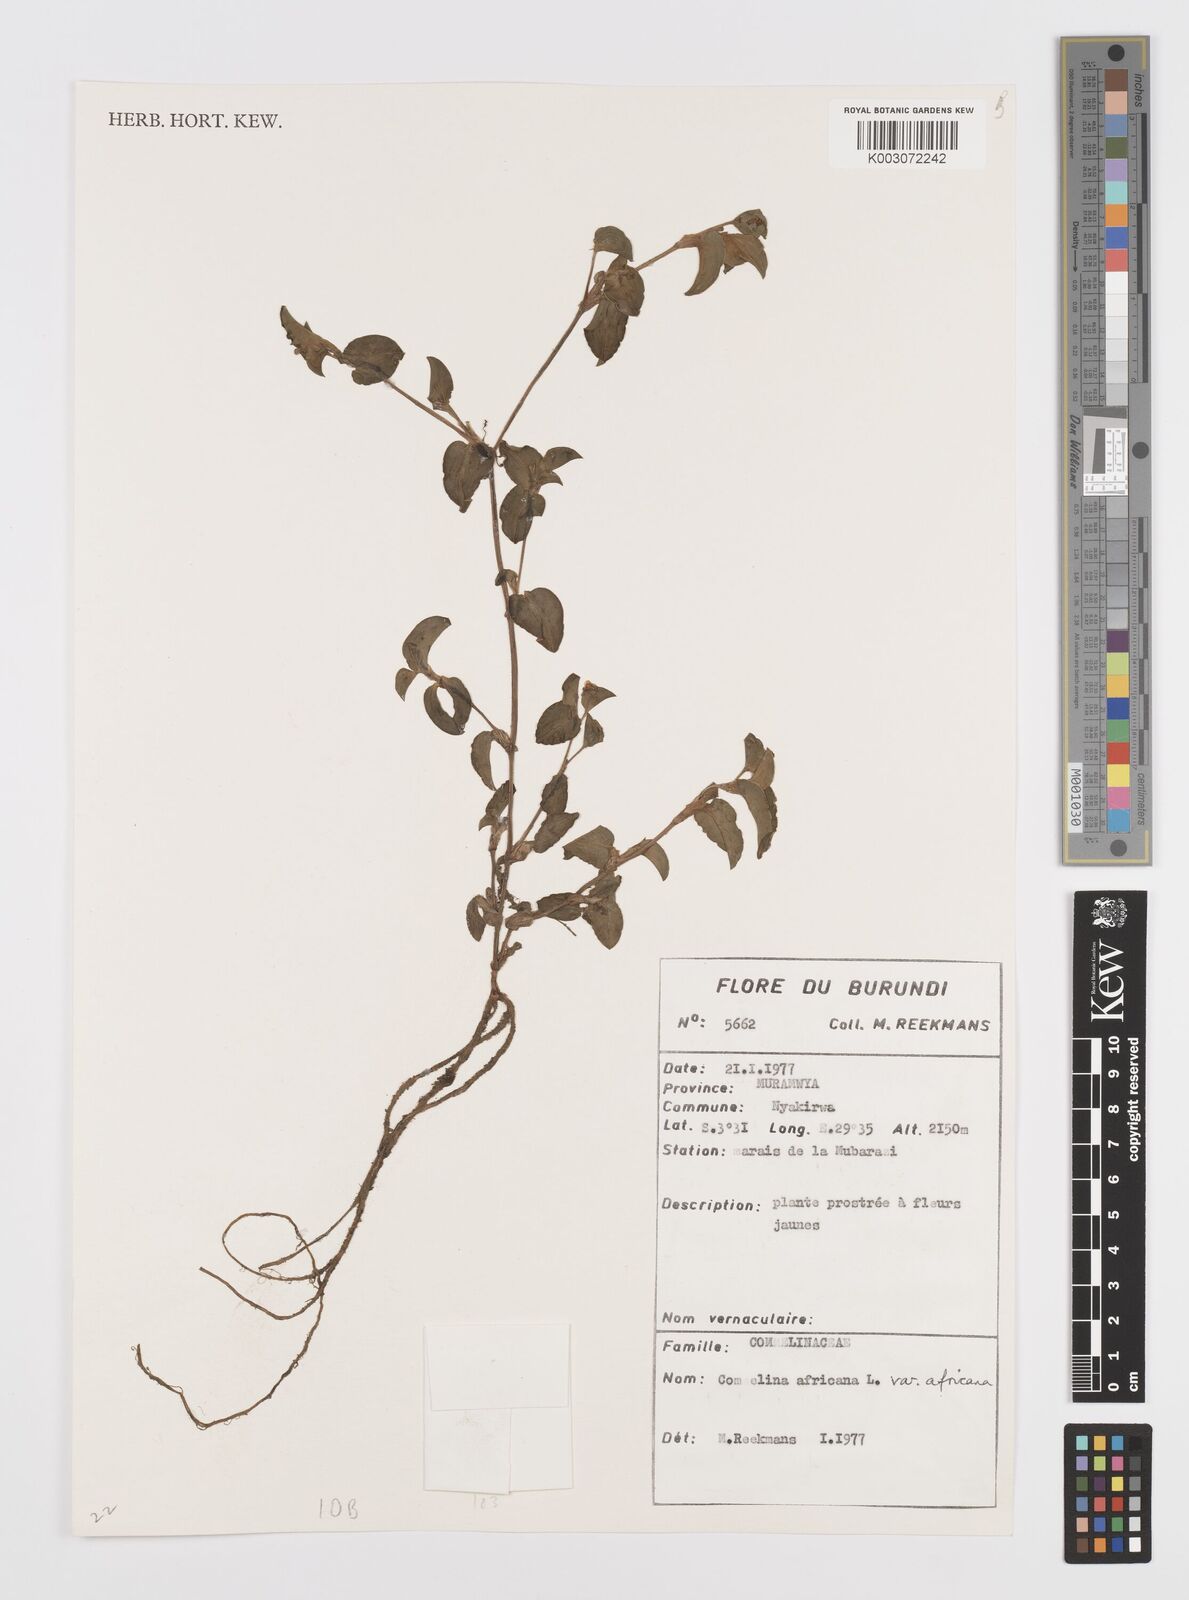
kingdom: Plantae
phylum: Tracheophyta
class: Liliopsida
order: Commelinales
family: Commelinaceae
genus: Commelina
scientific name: Commelina africana
